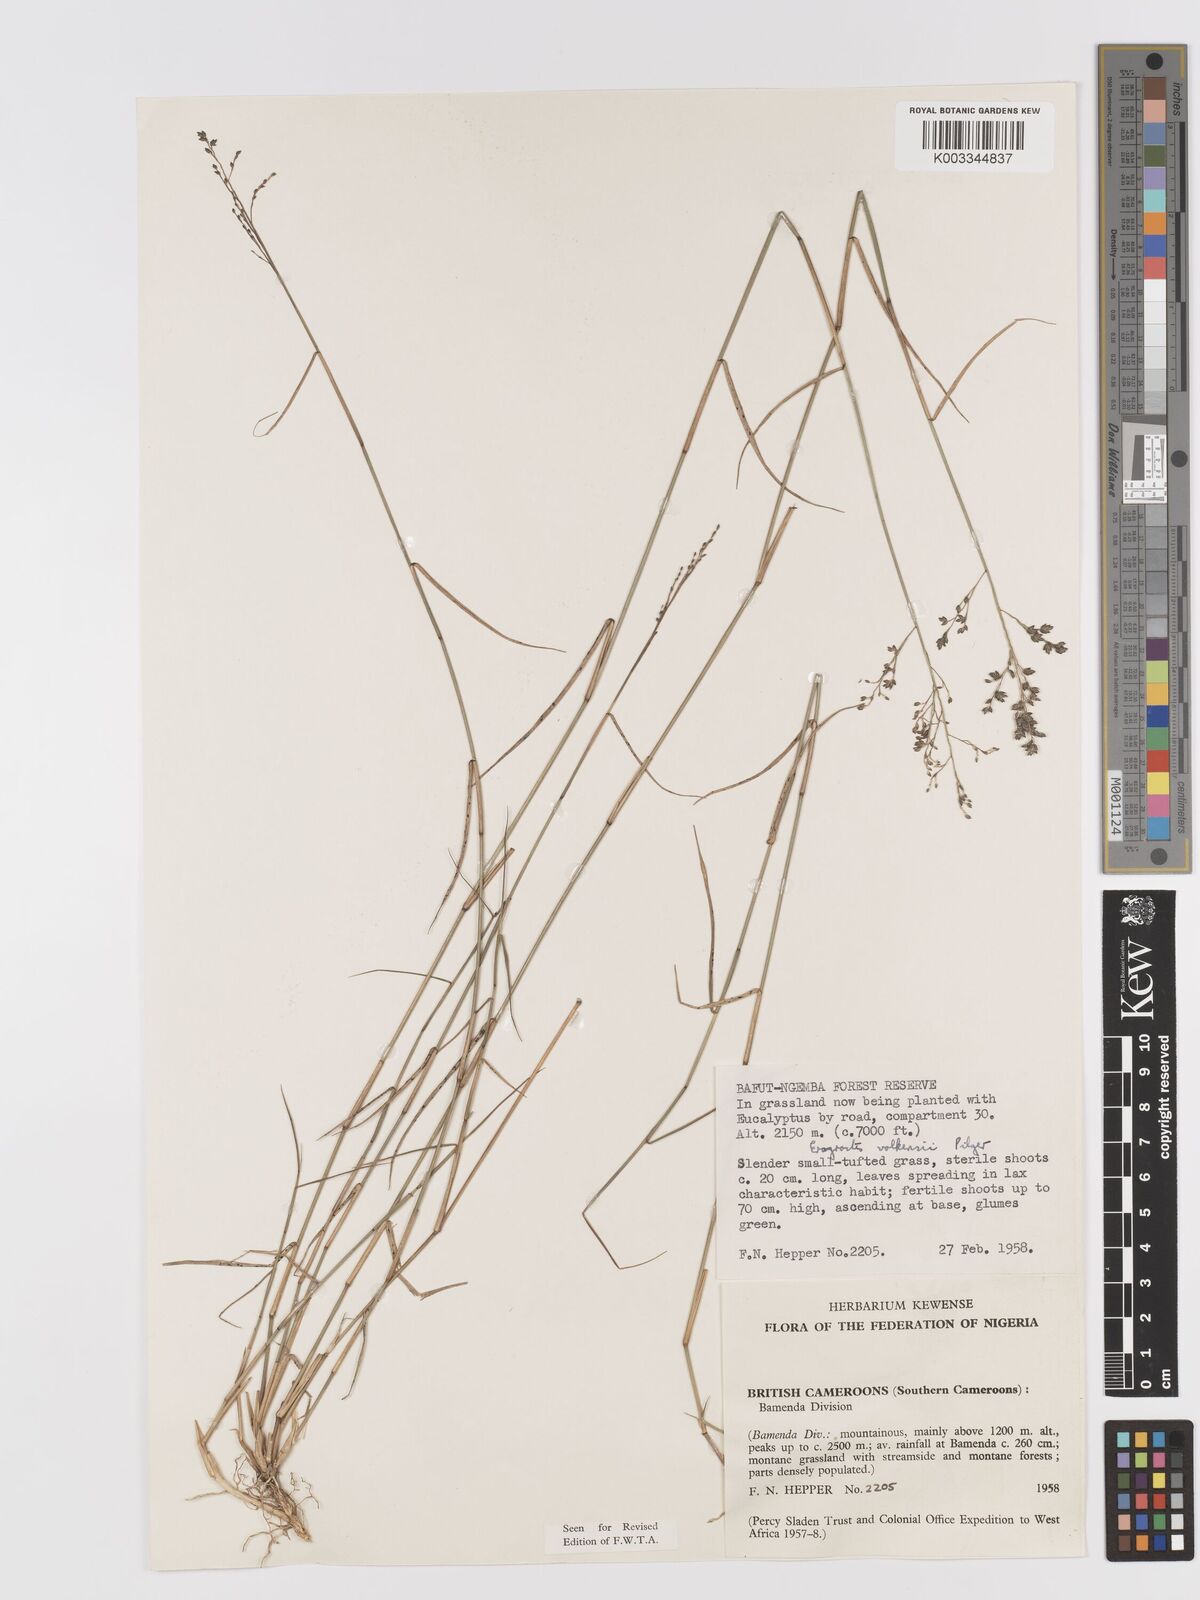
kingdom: Plantae
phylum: Tracheophyta
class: Liliopsida
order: Poales
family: Poaceae
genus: Eragrostis
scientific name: Eragrostis volkensii
